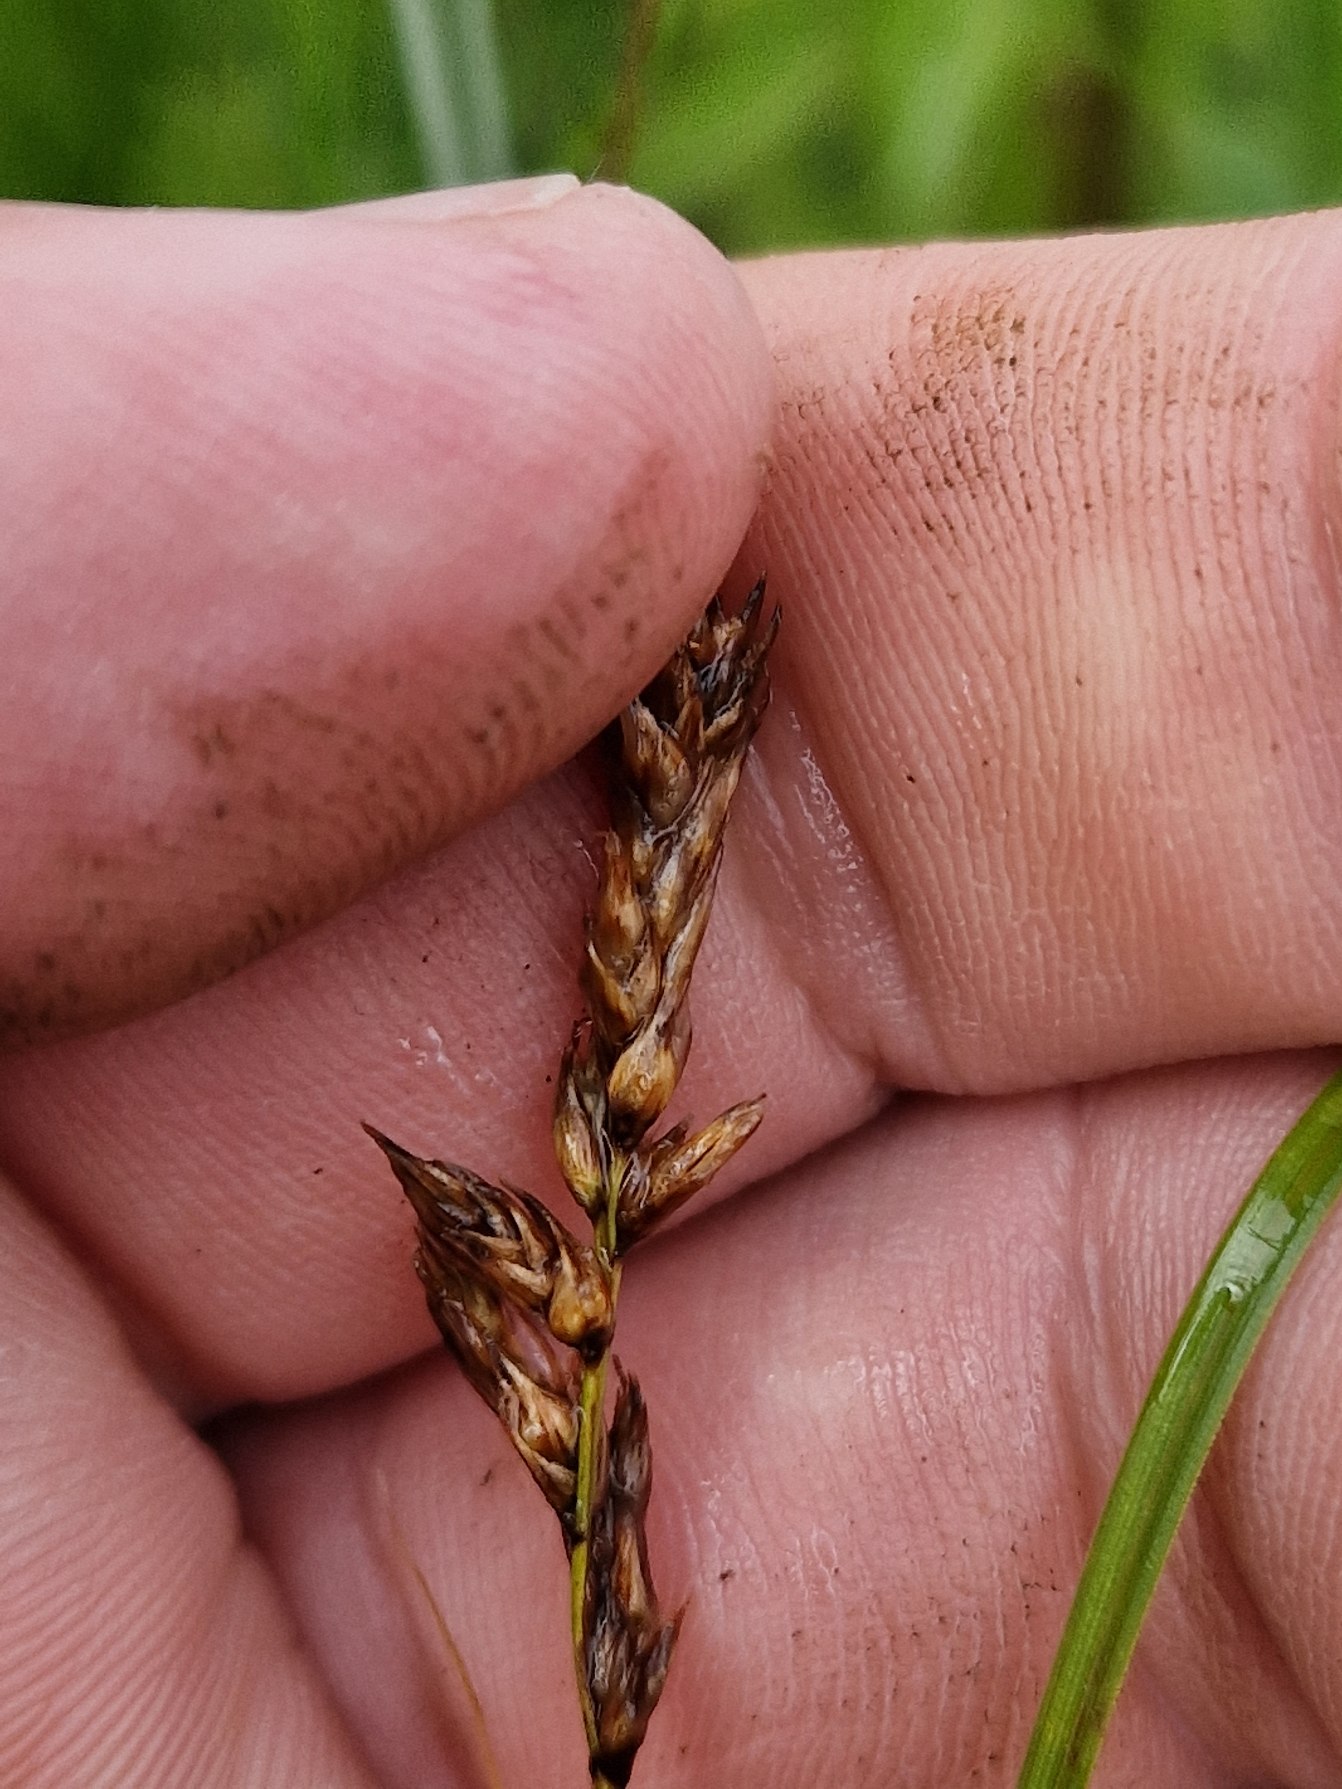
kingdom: Plantae
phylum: Tracheophyta
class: Liliopsida
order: Poales
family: Cyperaceae
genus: Carex
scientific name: Carex disticha
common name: Toradet star
